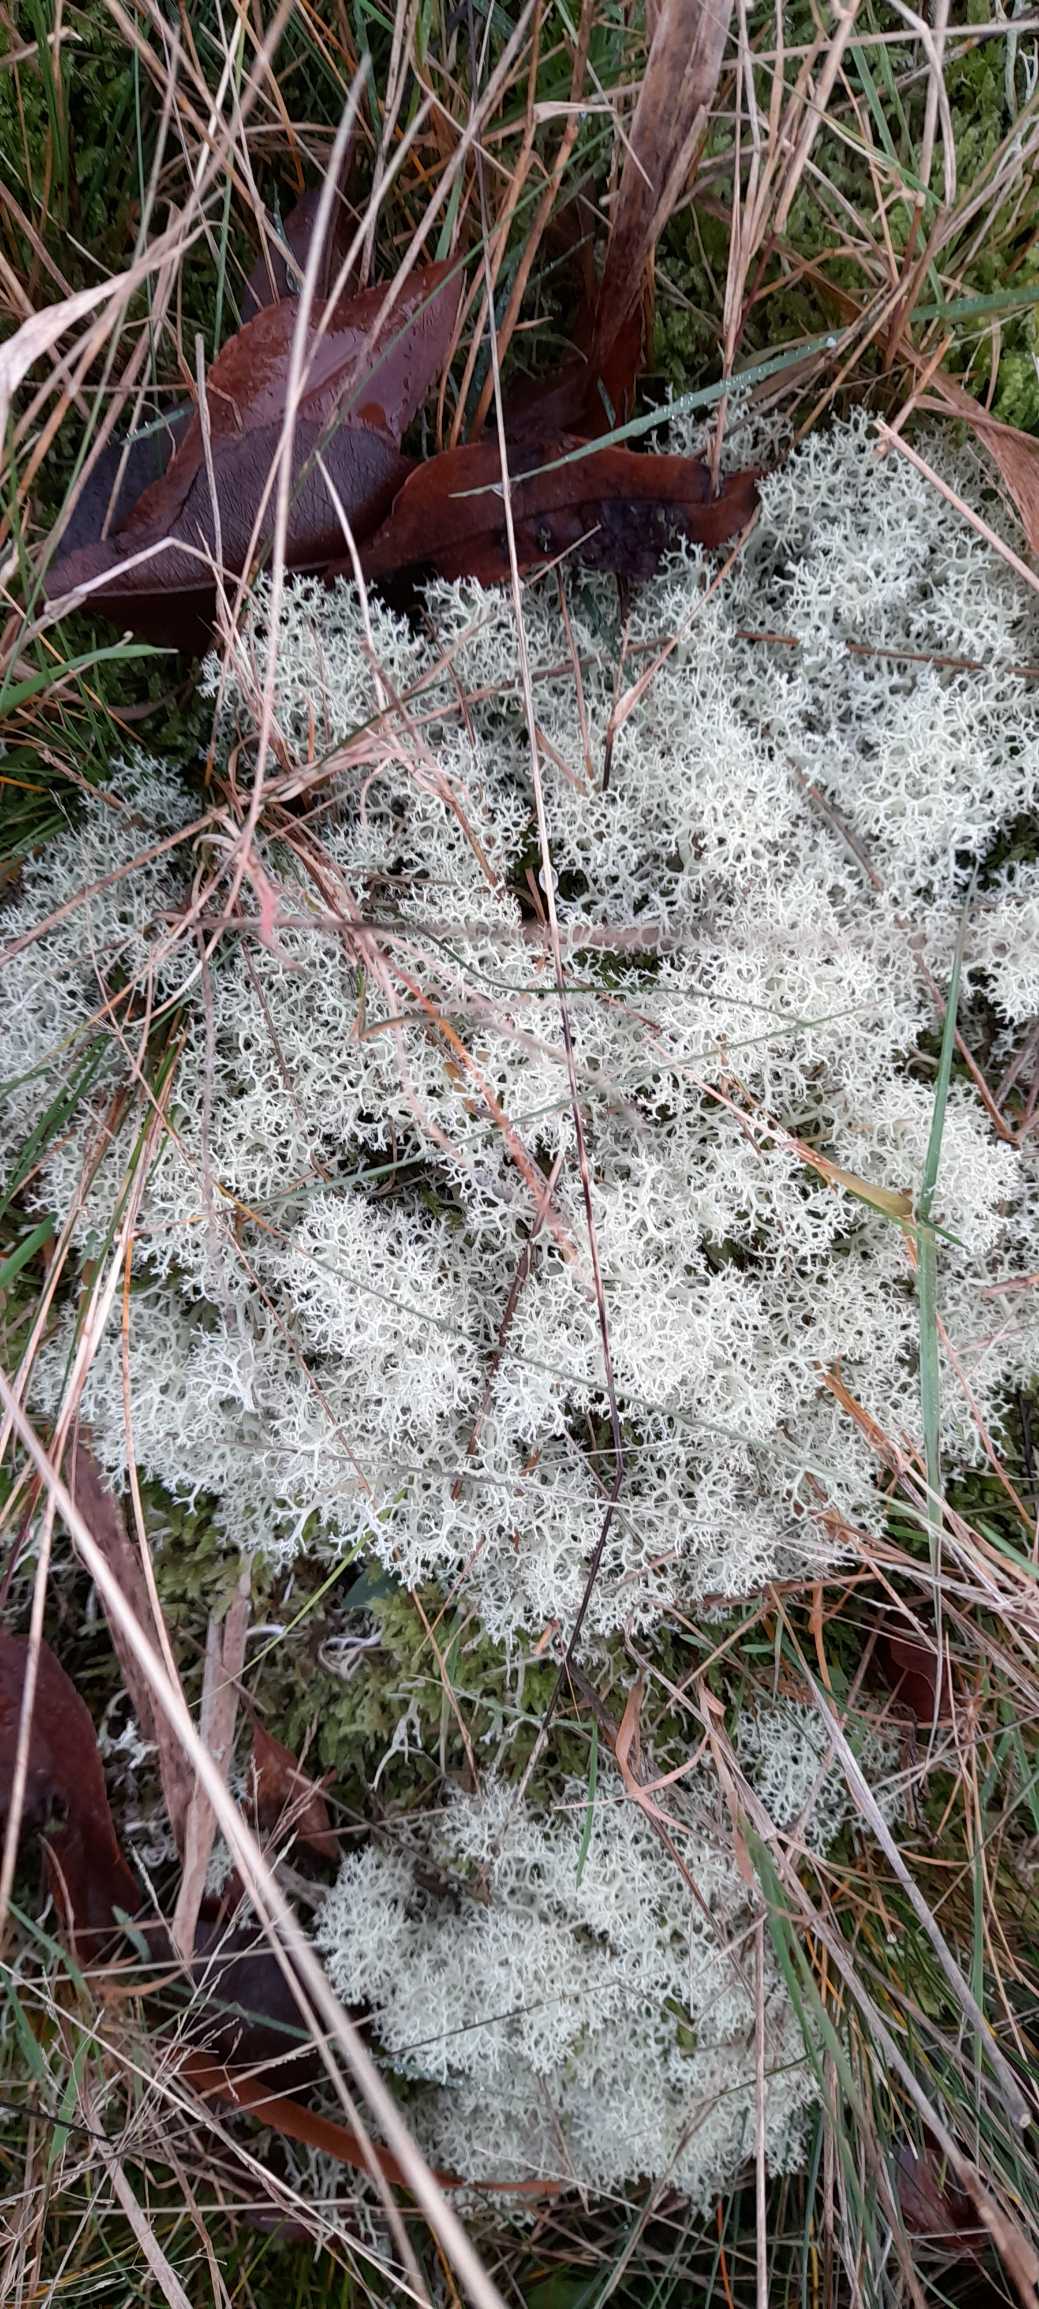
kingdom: Fungi
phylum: Ascomycota
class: Lecanoromycetes
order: Lecanorales
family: Cladoniaceae
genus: Cladonia
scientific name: Cladonia portentosa
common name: Hede-rensdyrlav
